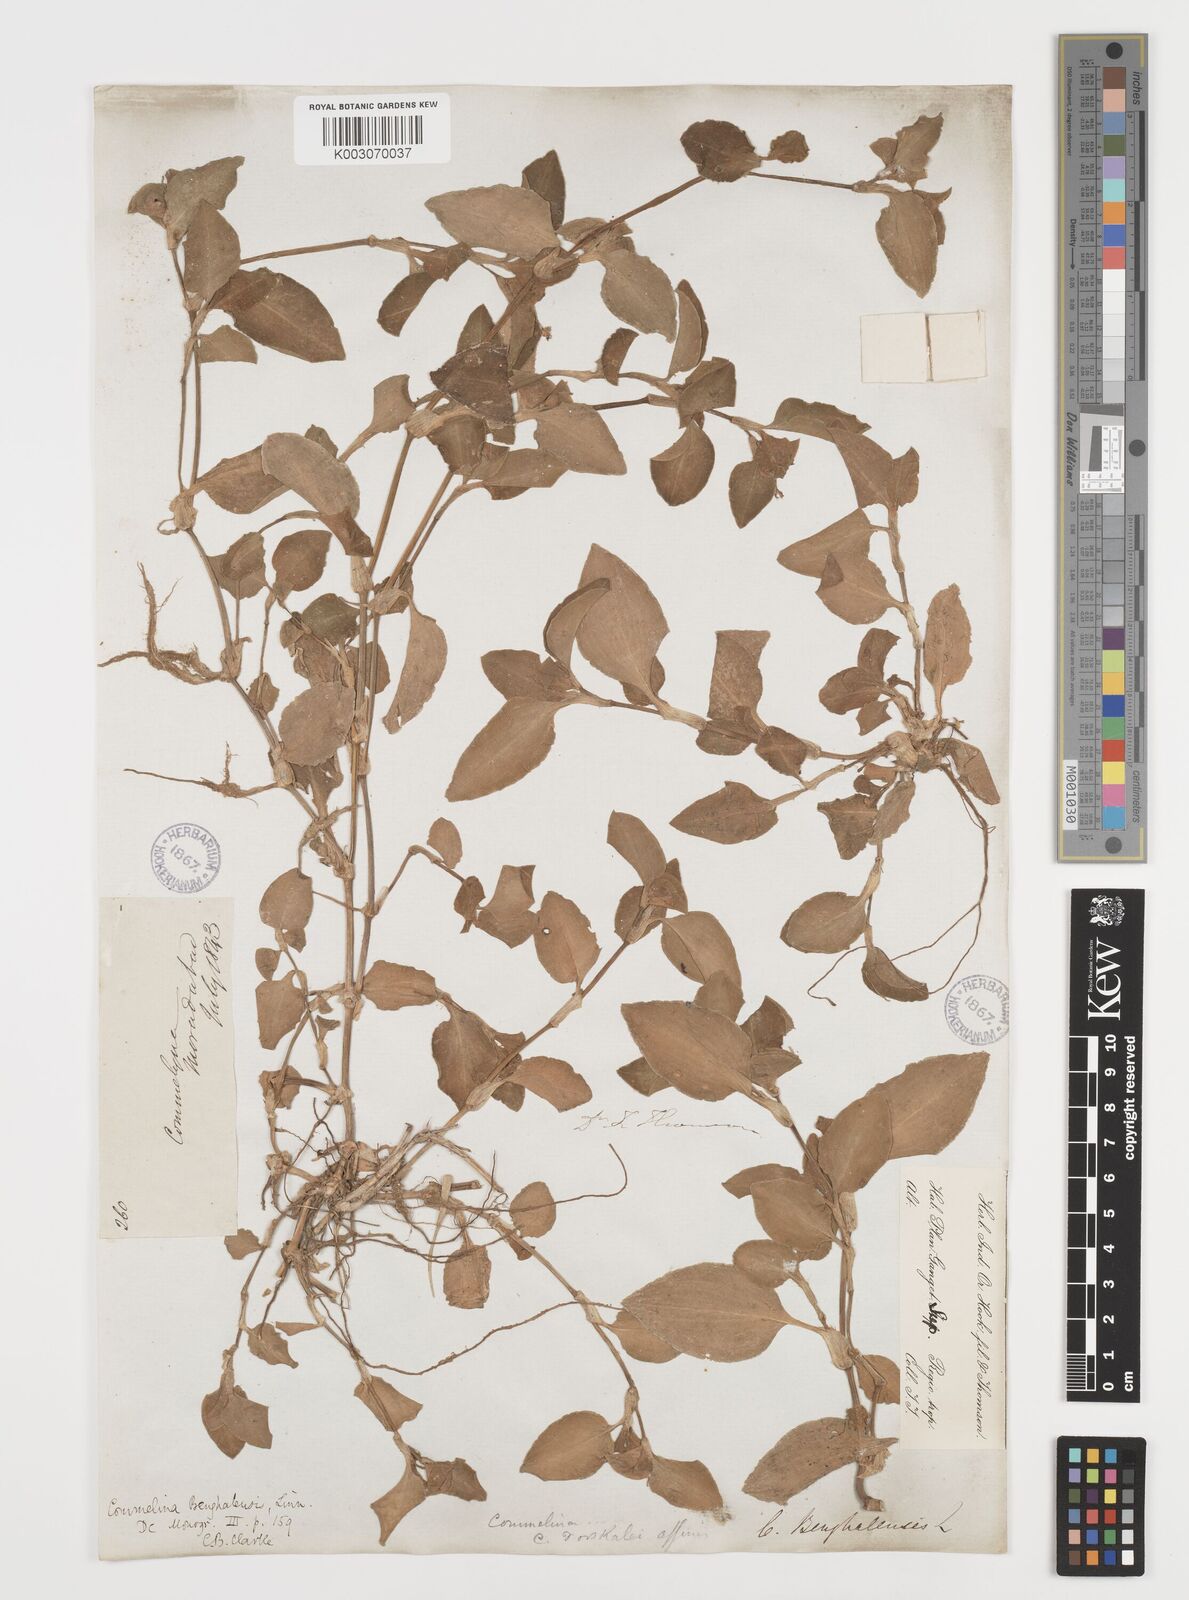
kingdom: Plantae
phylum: Tracheophyta
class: Liliopsida
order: Commelinales
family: Commelinaceae
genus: Commelina
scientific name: Commelina
